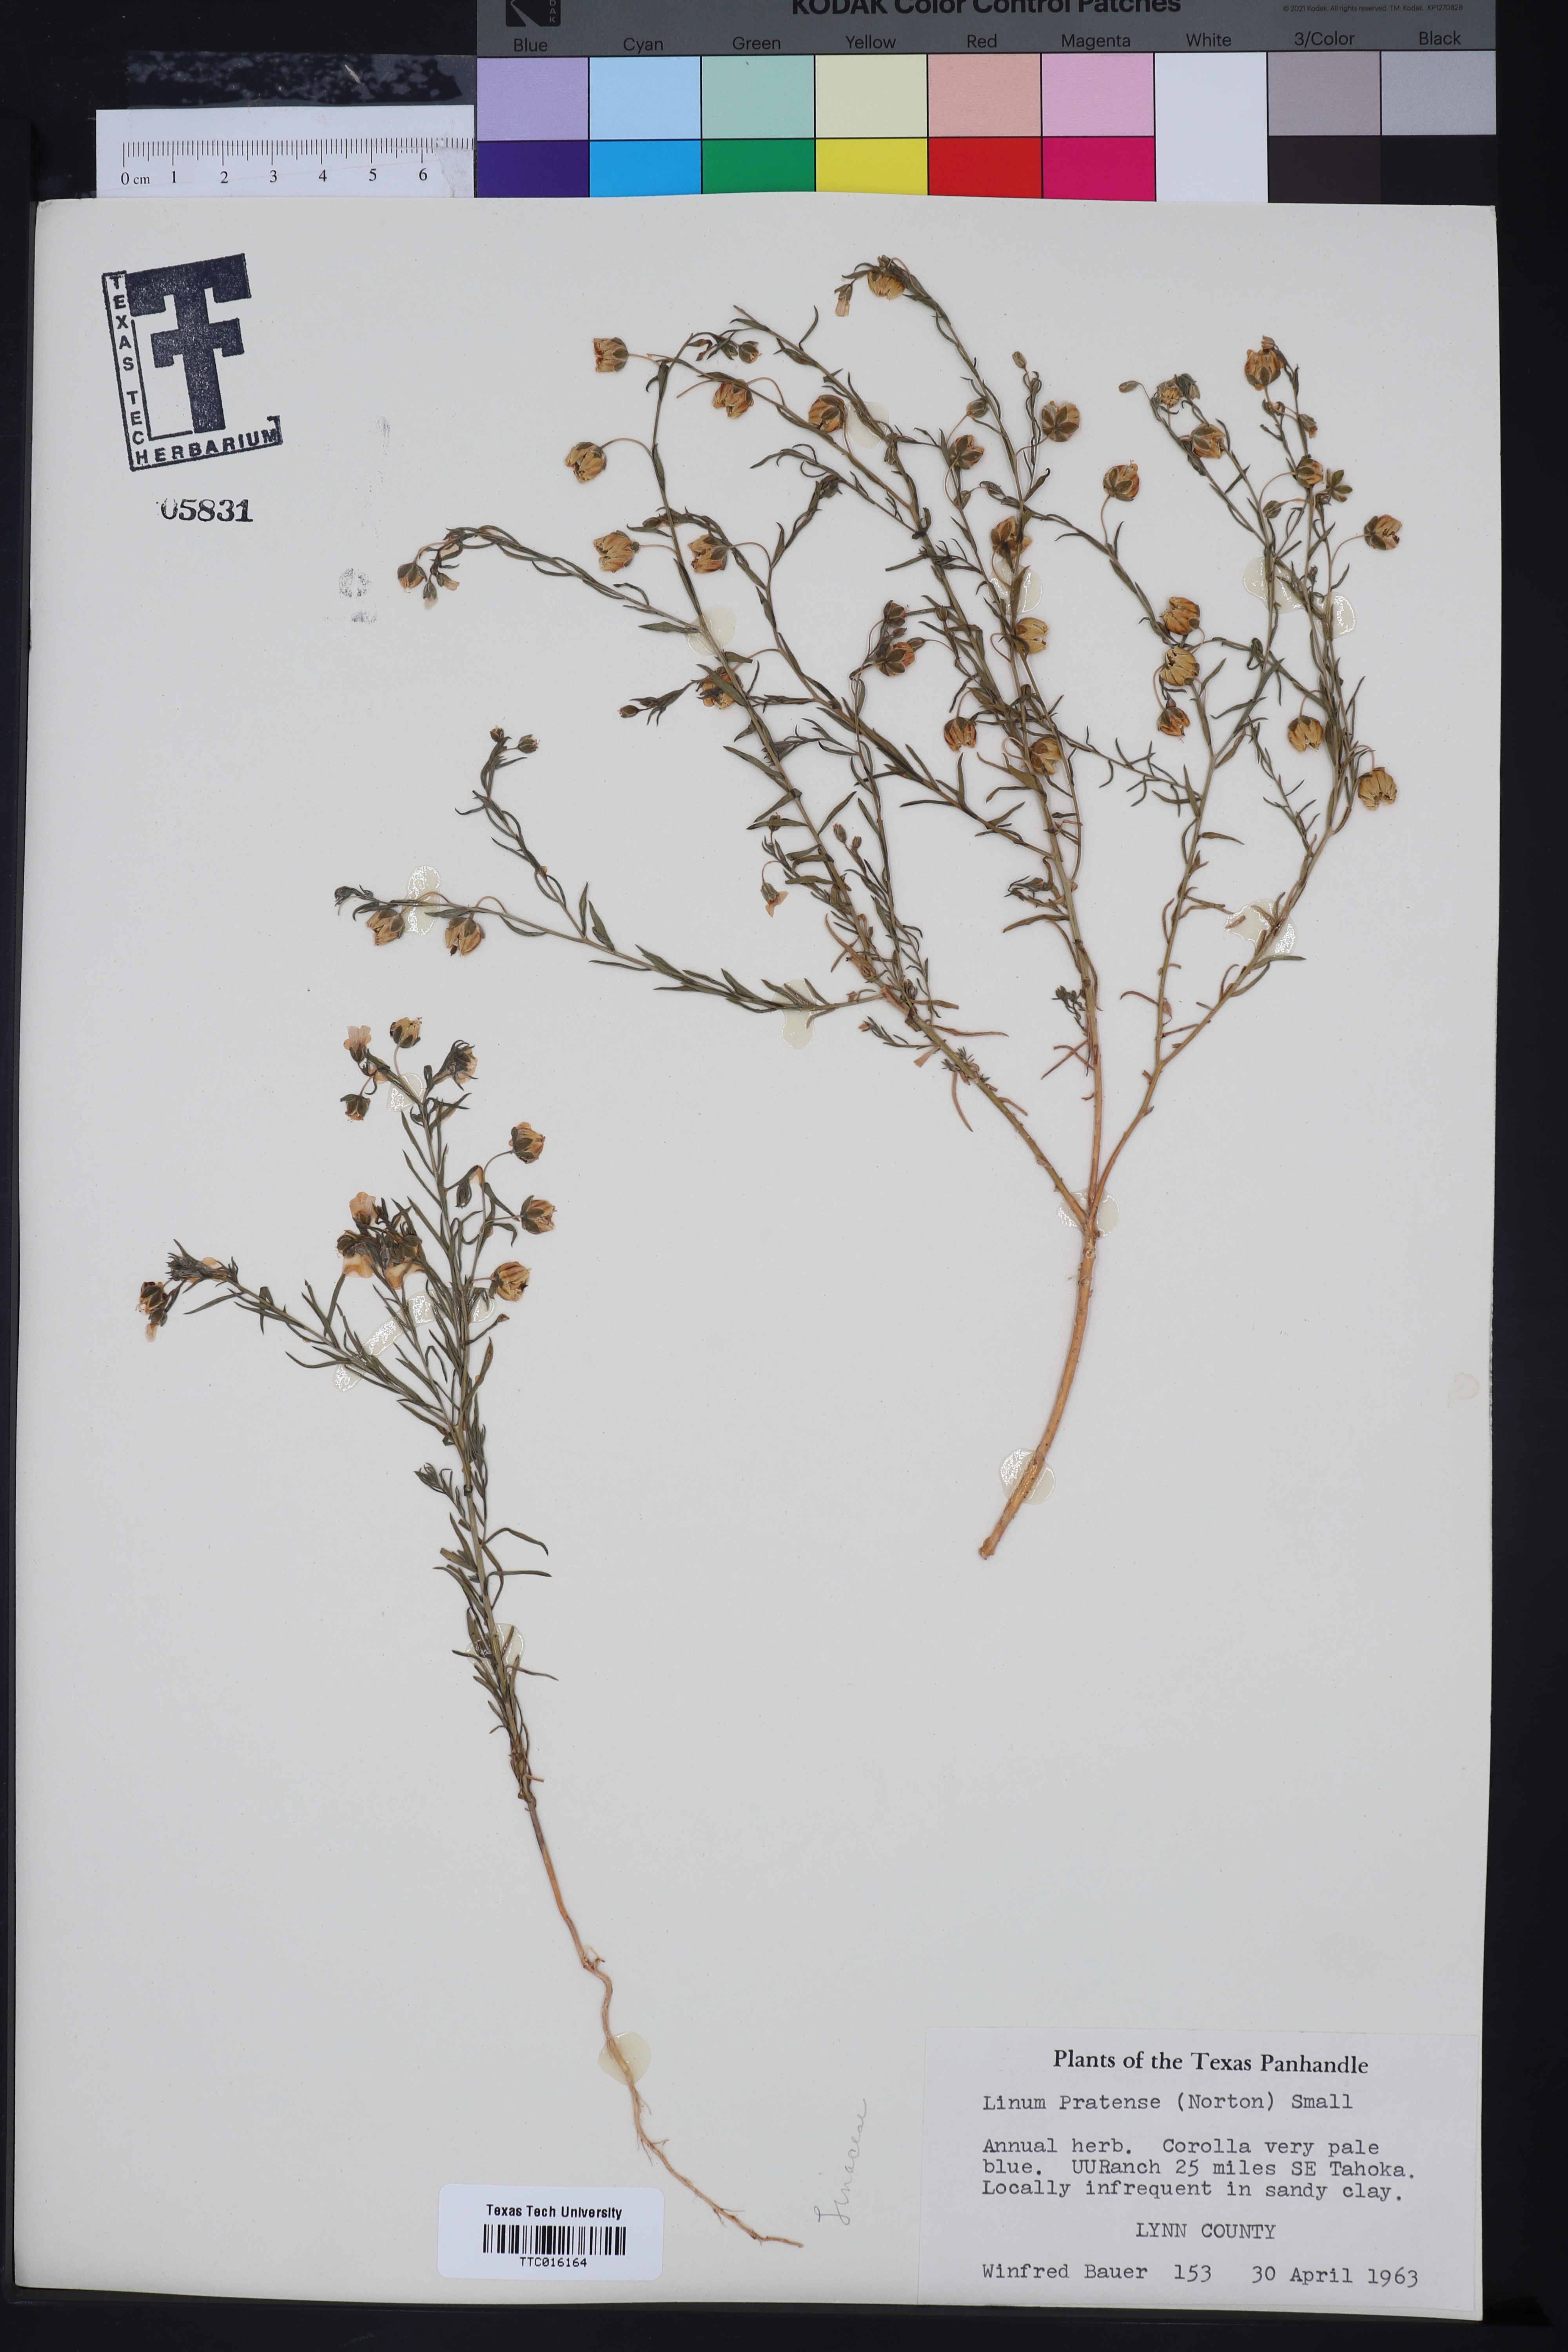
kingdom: Plantae
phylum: Tracheophyta
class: Magnoliopsida
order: Malpighiales
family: Linaceae
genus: Linum
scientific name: Linum pratense
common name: Norton's flax
